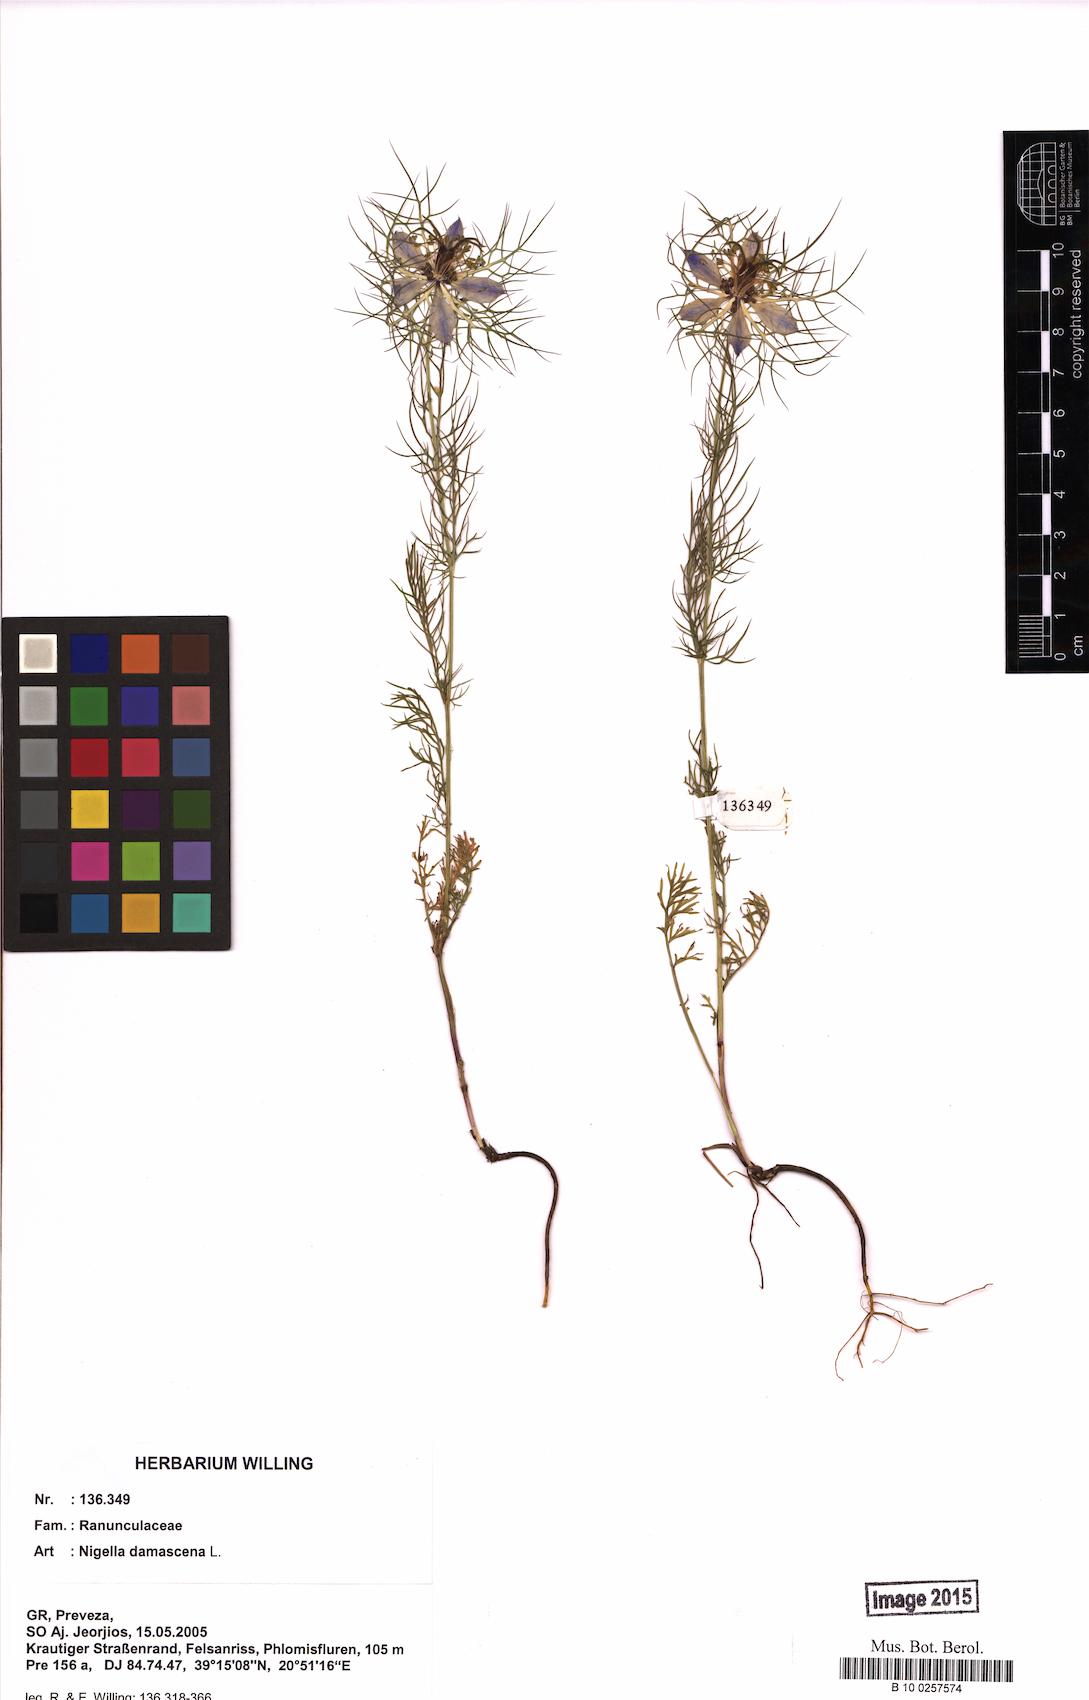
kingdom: Plantae
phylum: Tracheophyta
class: Magnoliopsida
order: Ranunculales
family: Ranunculaceae
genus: Nigella
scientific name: Nigella damascena
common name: Love-in-a-mist
